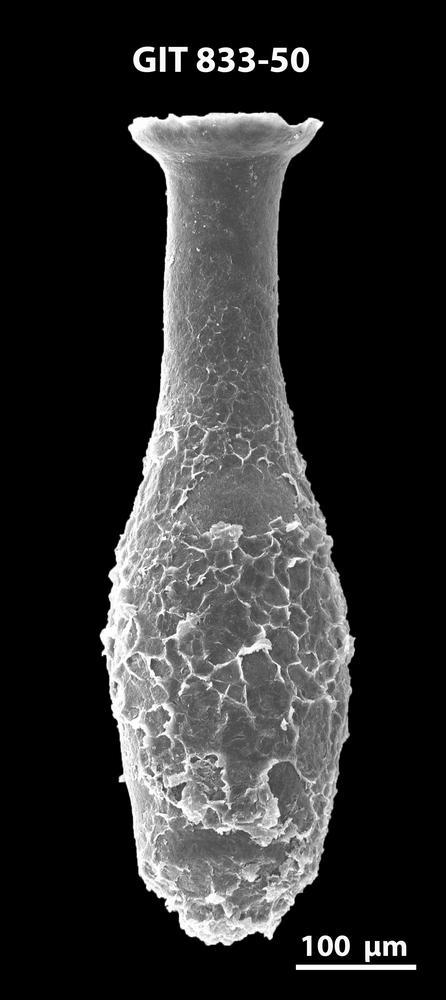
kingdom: Animalia
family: Lagenochitinidae
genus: Lagenochitina
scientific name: Lagenochitina megaesthonica
